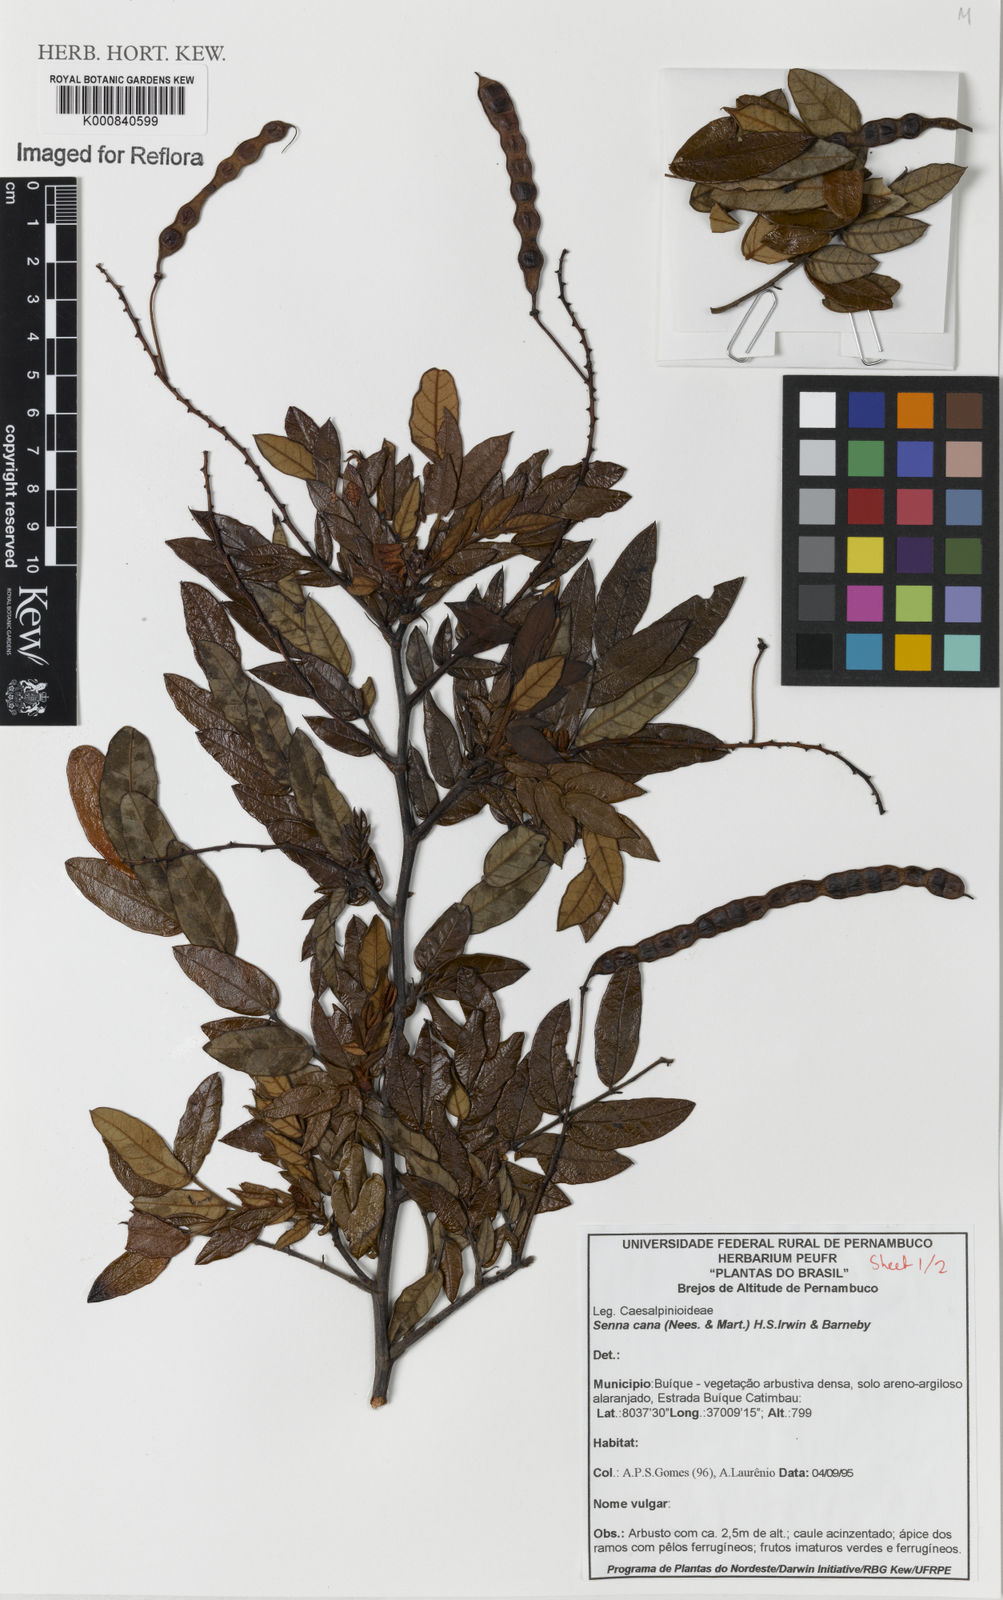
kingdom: Plantae
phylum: Tracheophyta
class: Magnoliopsida
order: Fabales
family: Fabaceae
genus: Senna
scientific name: Senna cana
